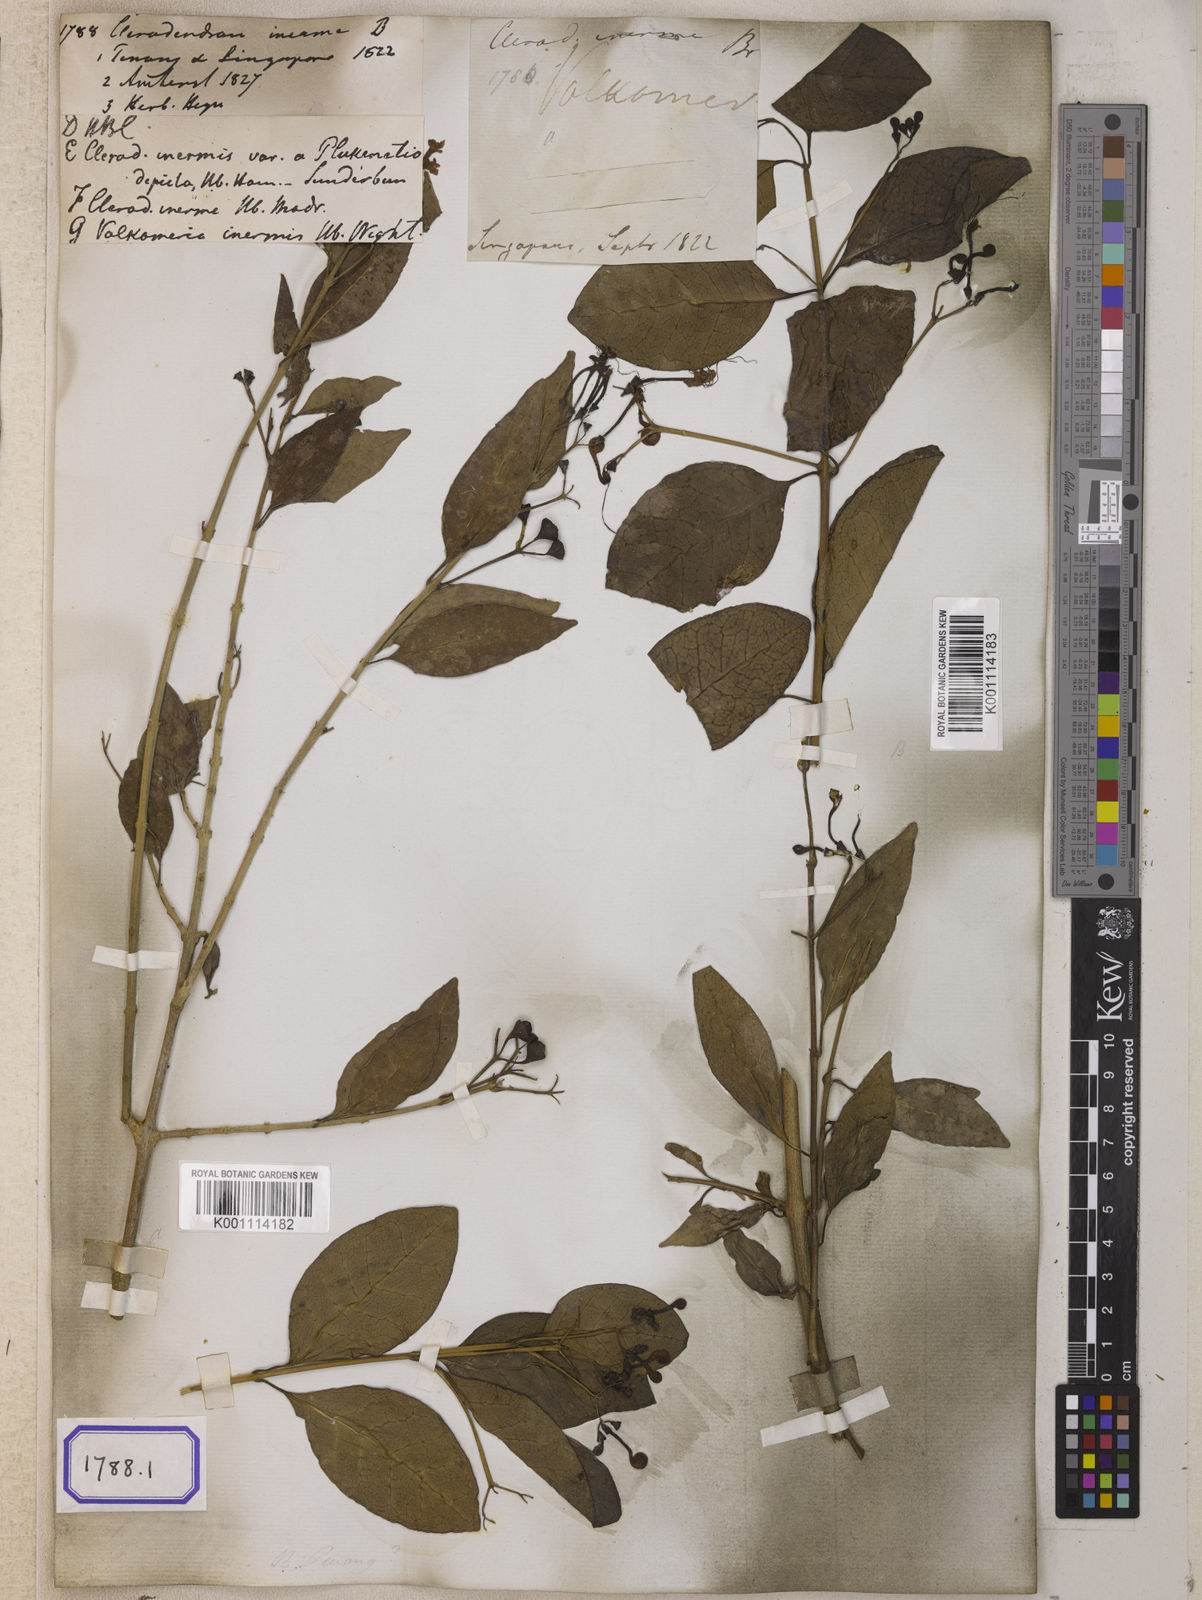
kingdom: Plantae
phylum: Tracheophyta
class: Magnoliopsida
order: Lamiales
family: Lamiaceae
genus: Clerodendrum
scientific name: Clerodendrum
